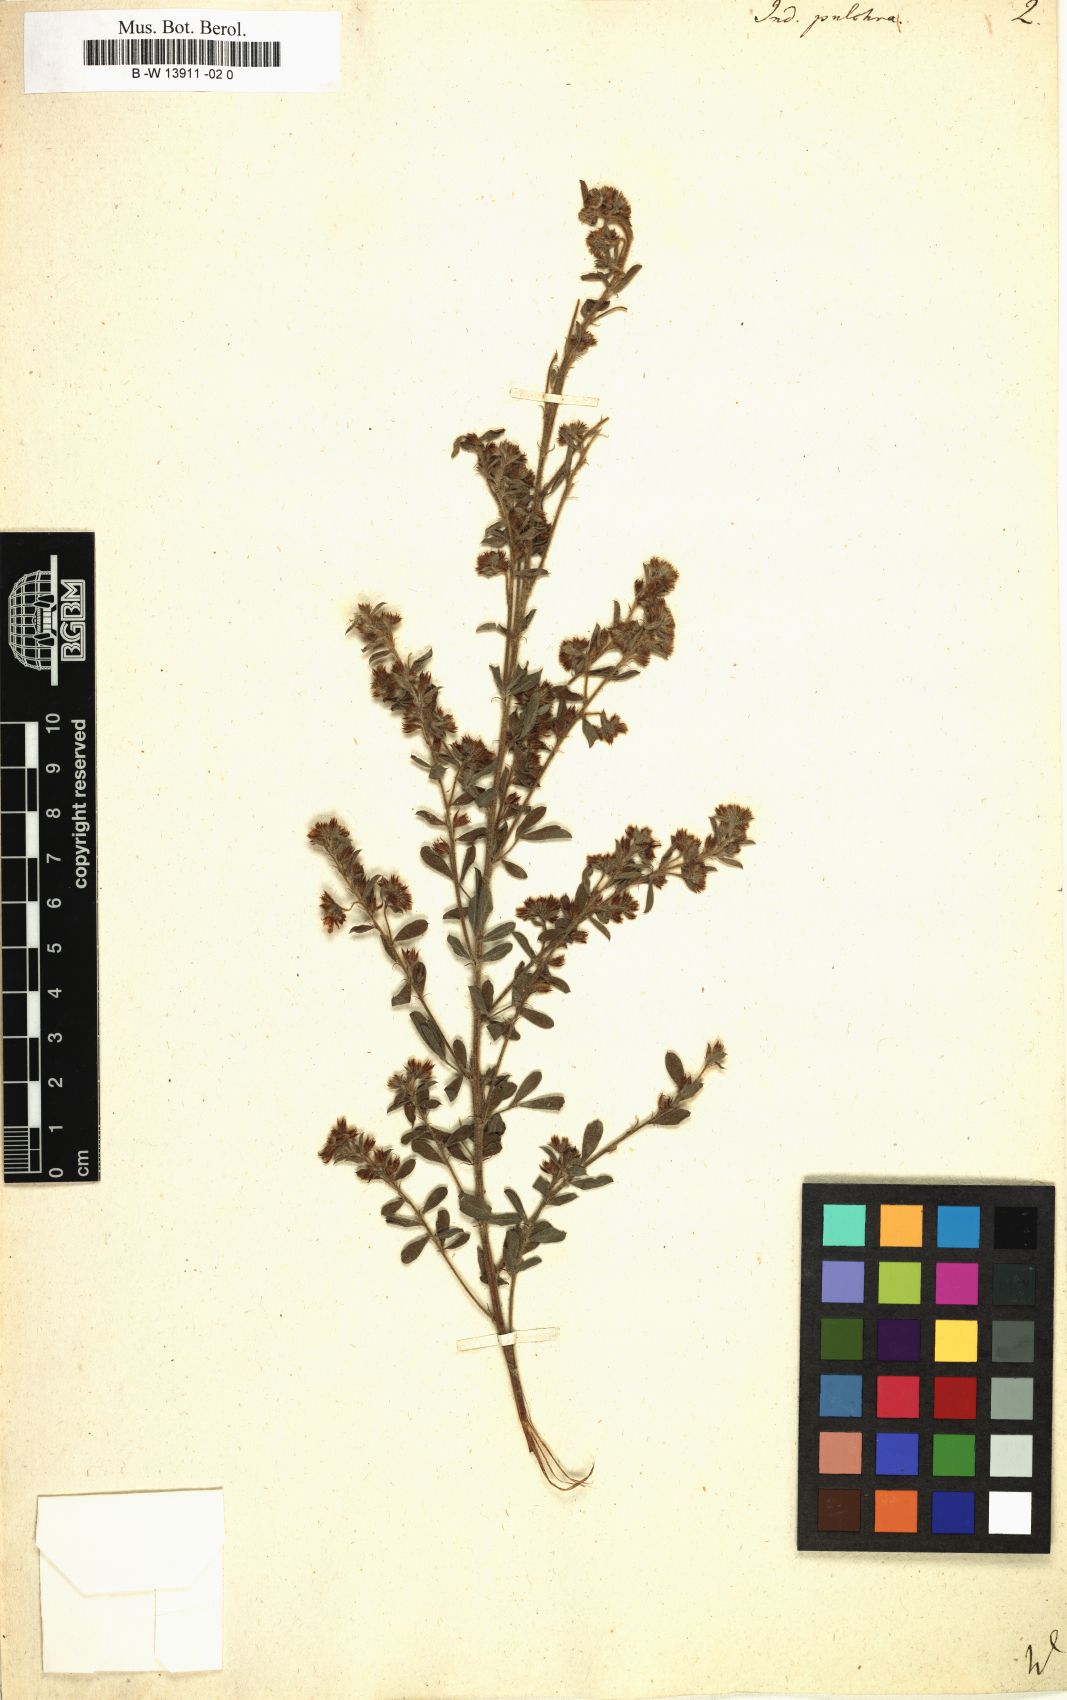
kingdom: Plantae
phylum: Tracheophyta
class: Magnoliopsida
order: Fabales
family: Fabaceae
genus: Indigofera
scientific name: Indigofera pulchra
